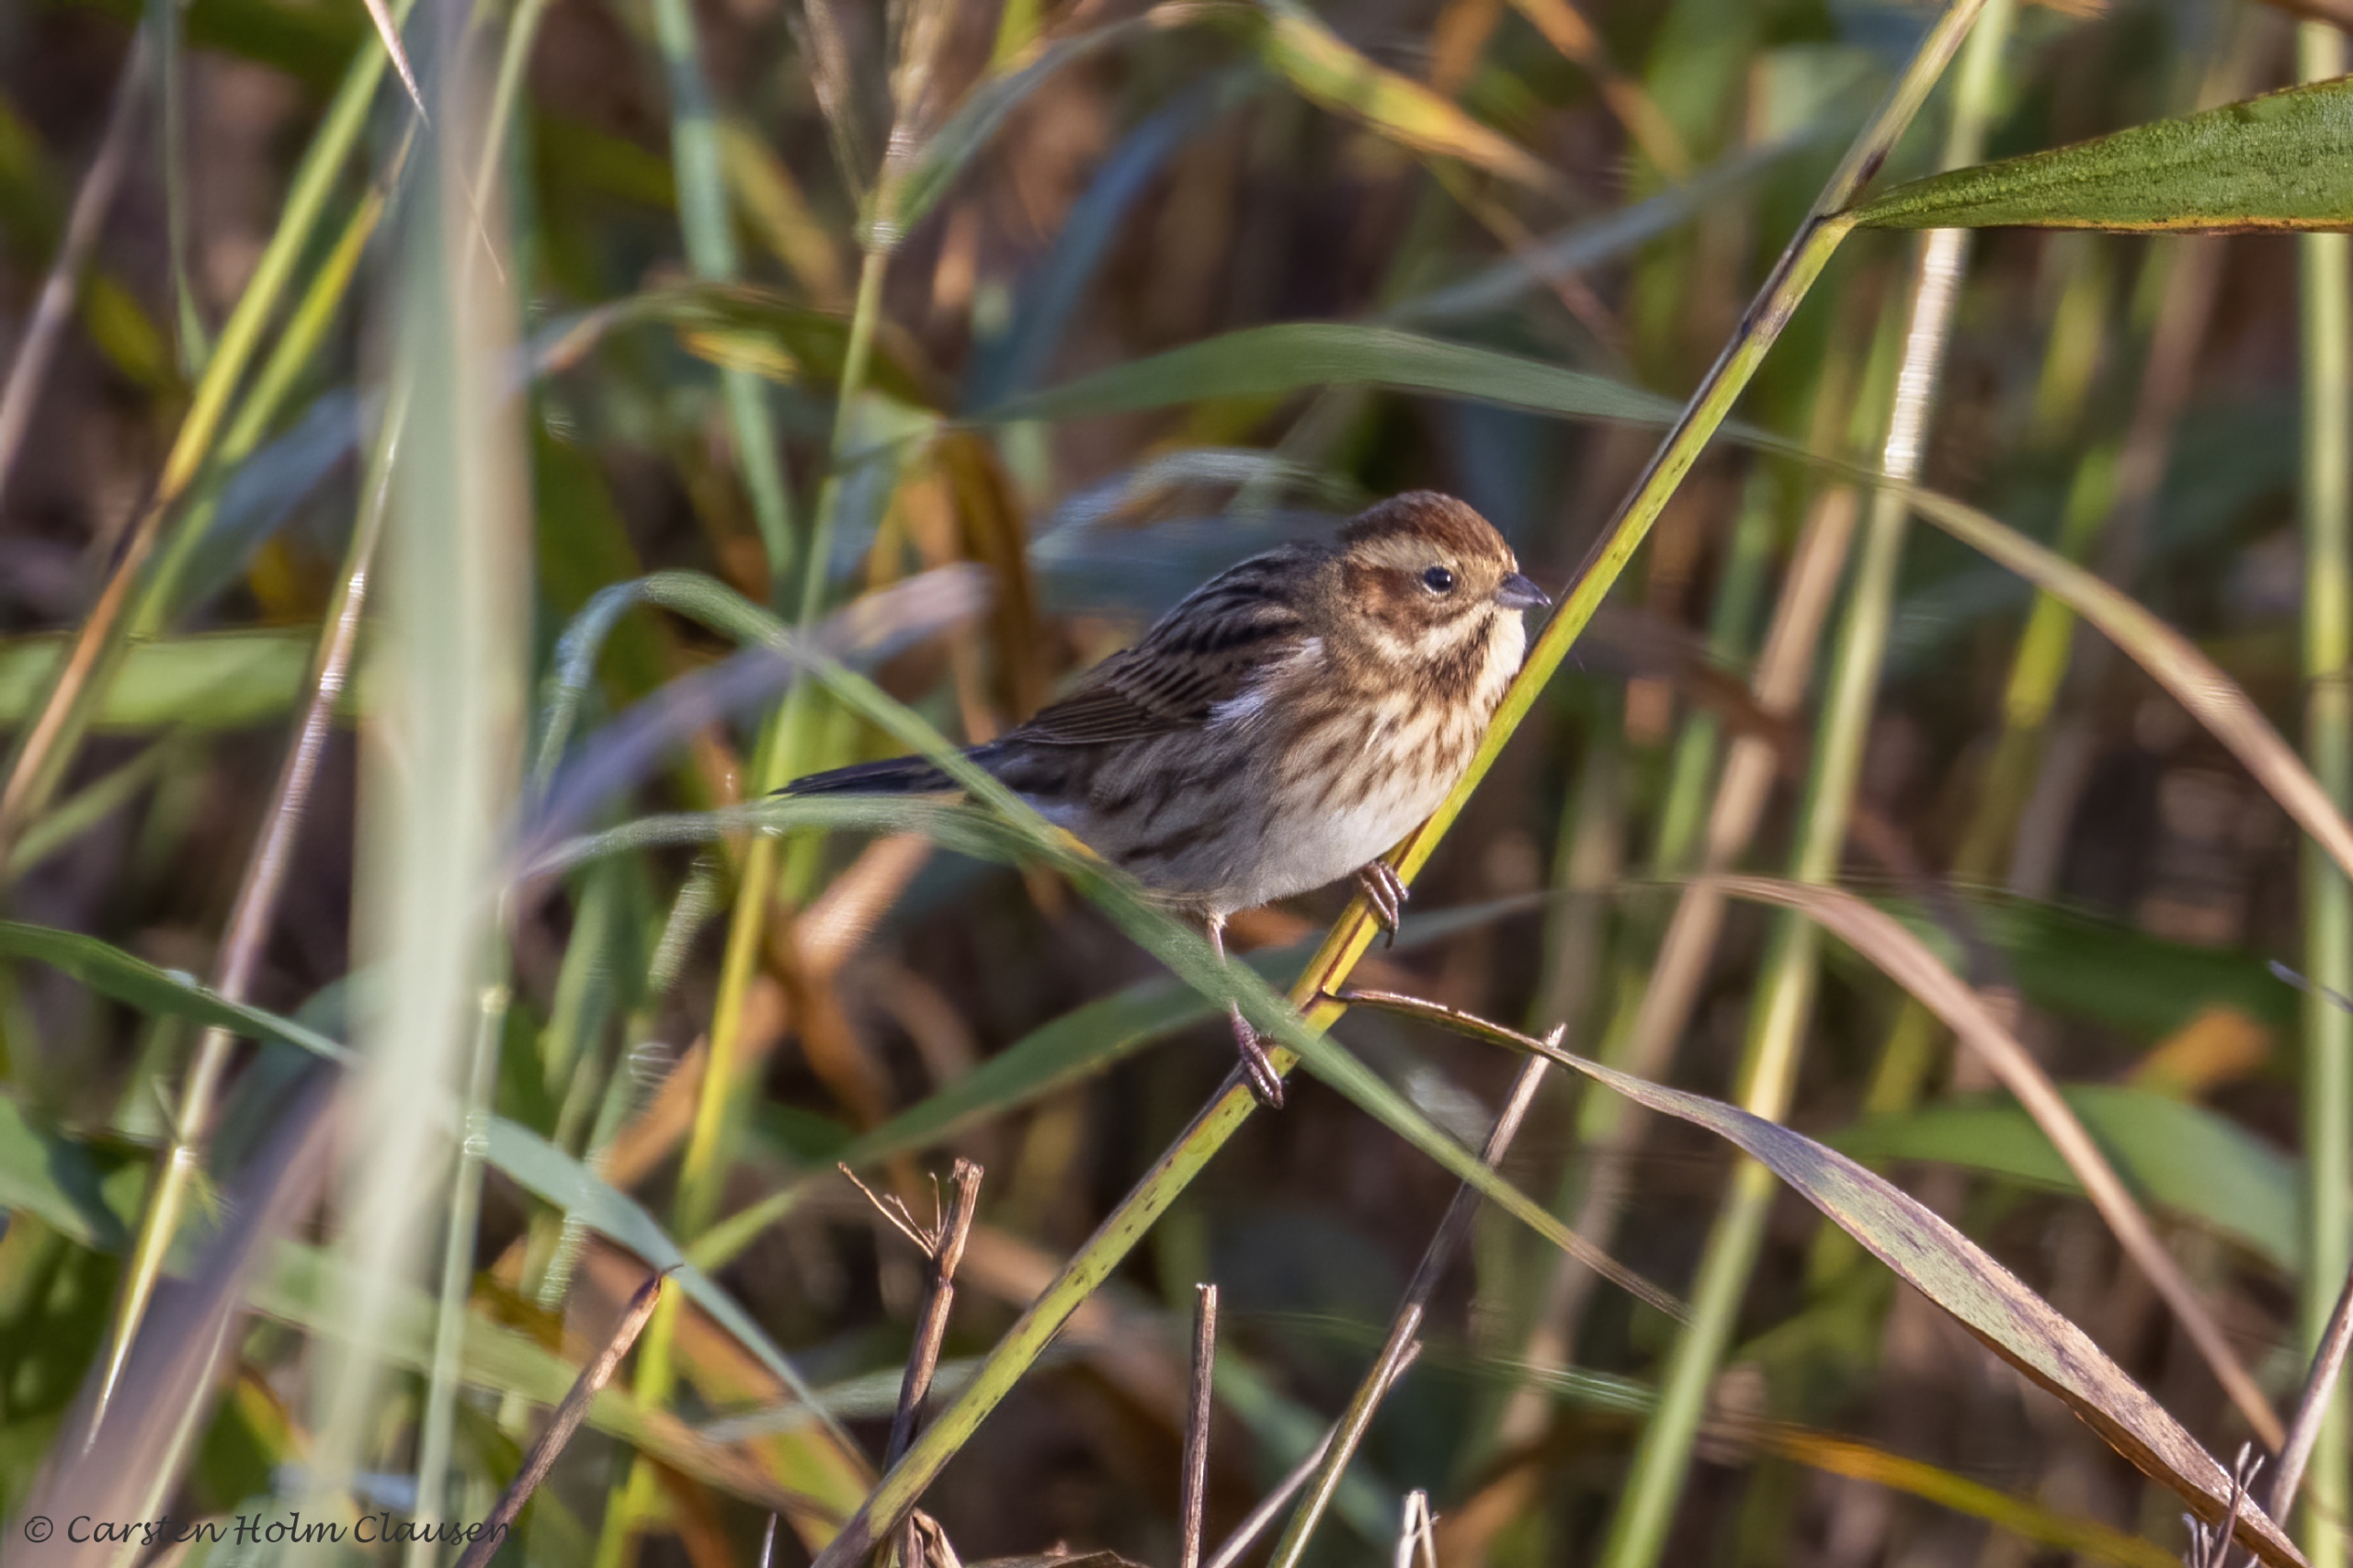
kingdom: Animalia
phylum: Chordata
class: Aves
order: Passeriformes
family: Emberizidae
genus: Emberiza
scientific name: Emberiza schoeniclus
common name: Rørspurv
